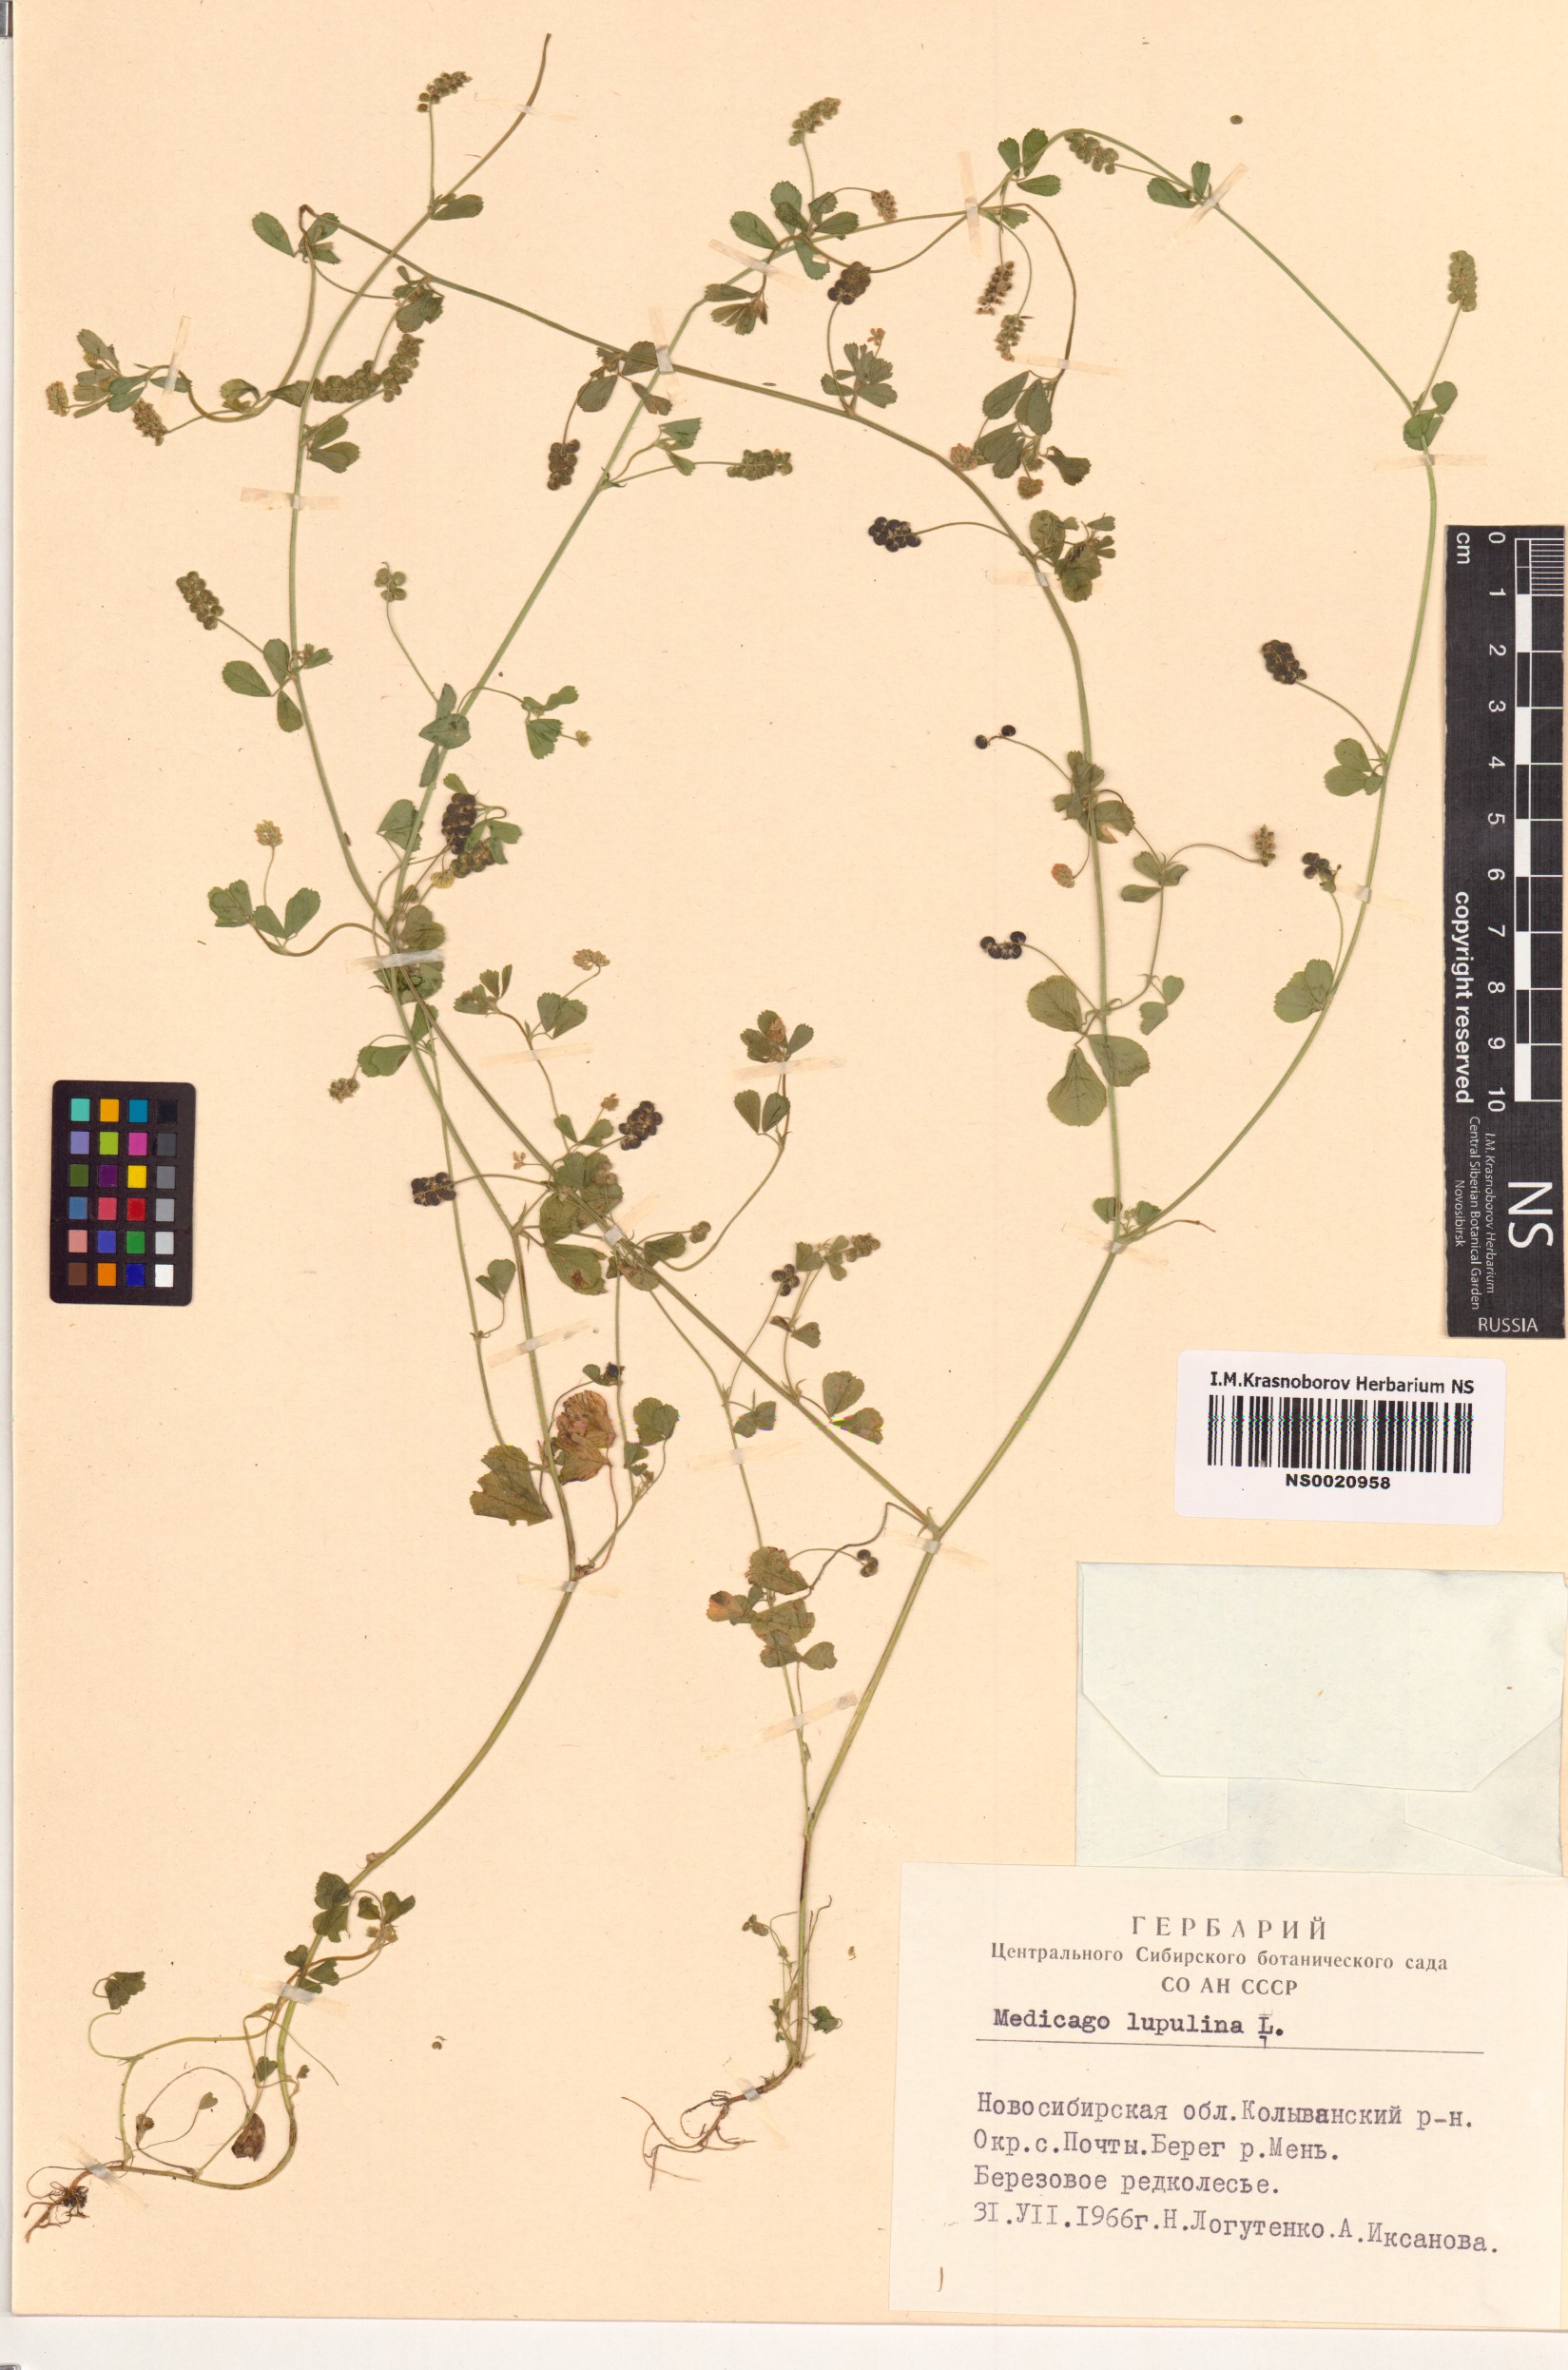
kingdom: Plantae
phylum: Tracheophyta
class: Magnoliopsida
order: Fabales
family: Fabaceae
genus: Medicago
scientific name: Medicago lupulina
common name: Black medick
